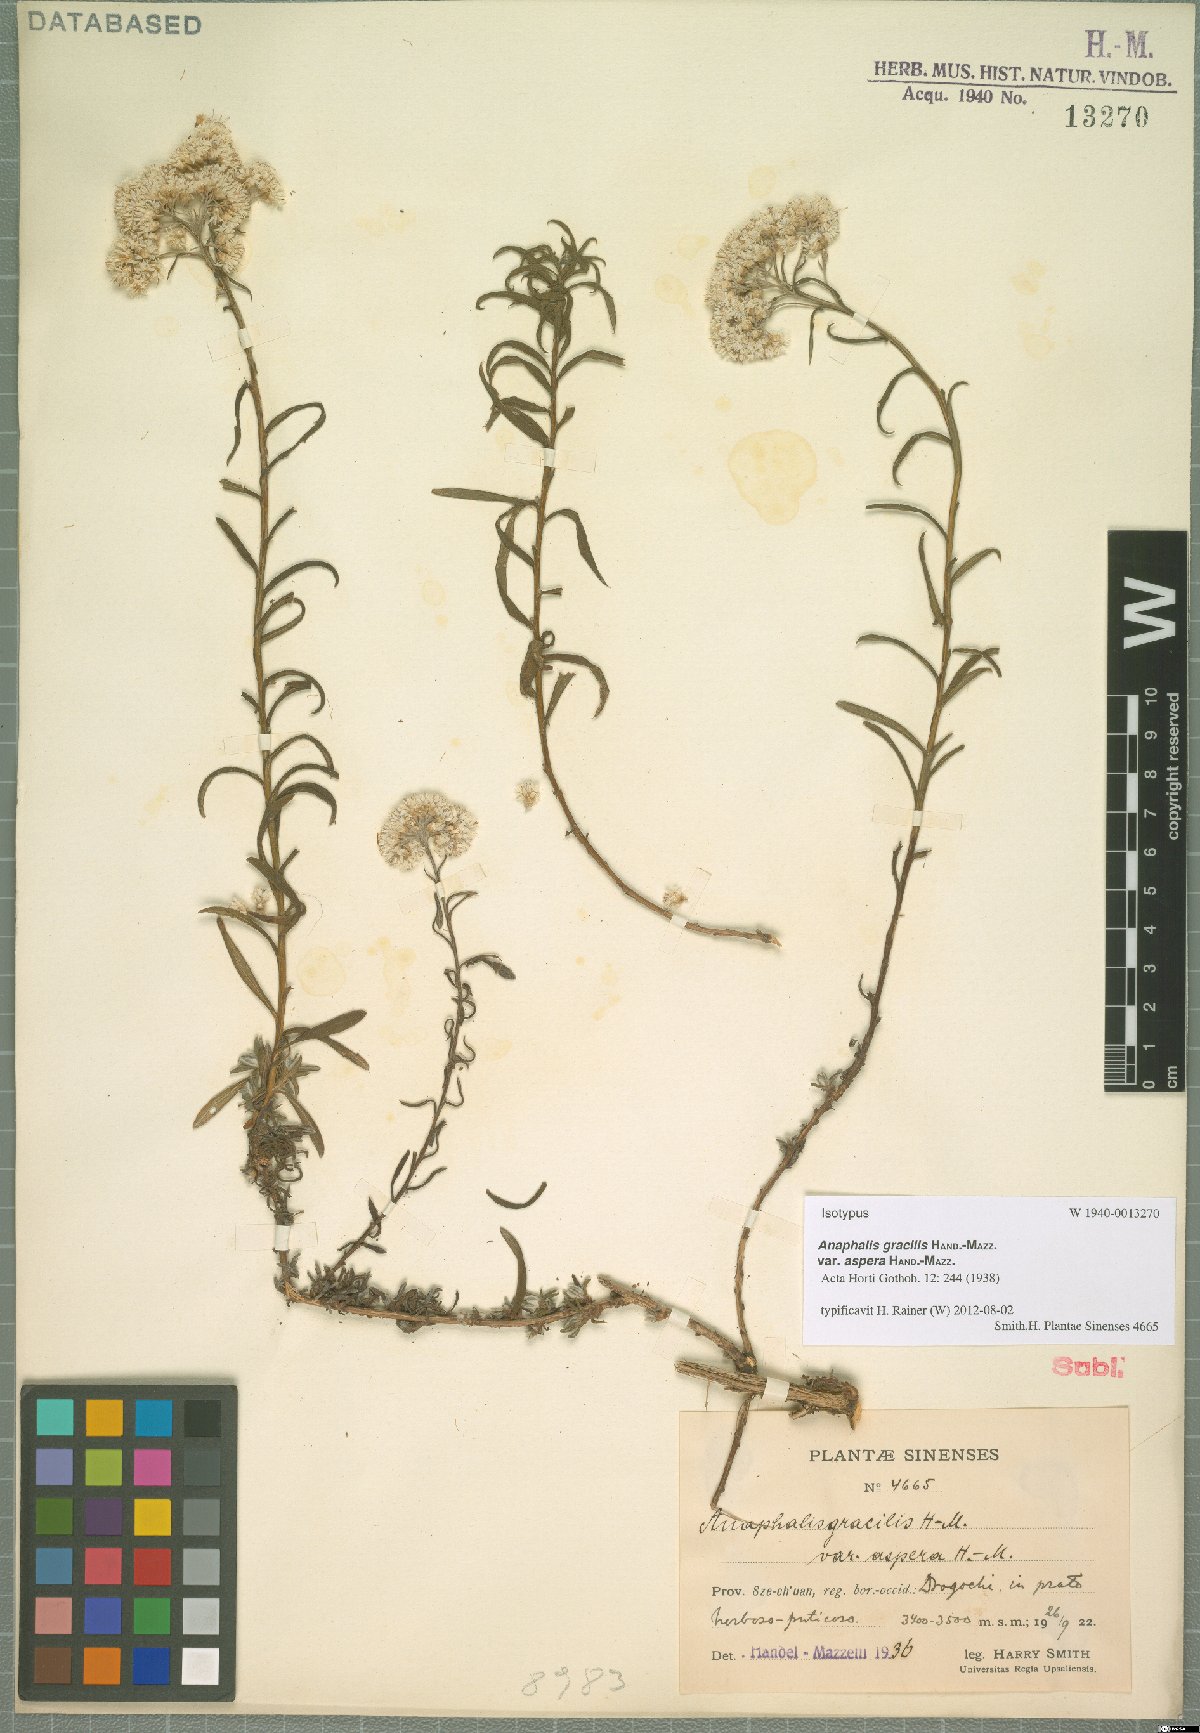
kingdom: Plantae
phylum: Tracheophyta
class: Magnoliopsida
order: Asterales
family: Asteraceae
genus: Anaphalis
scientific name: Anaphalis gracilis
